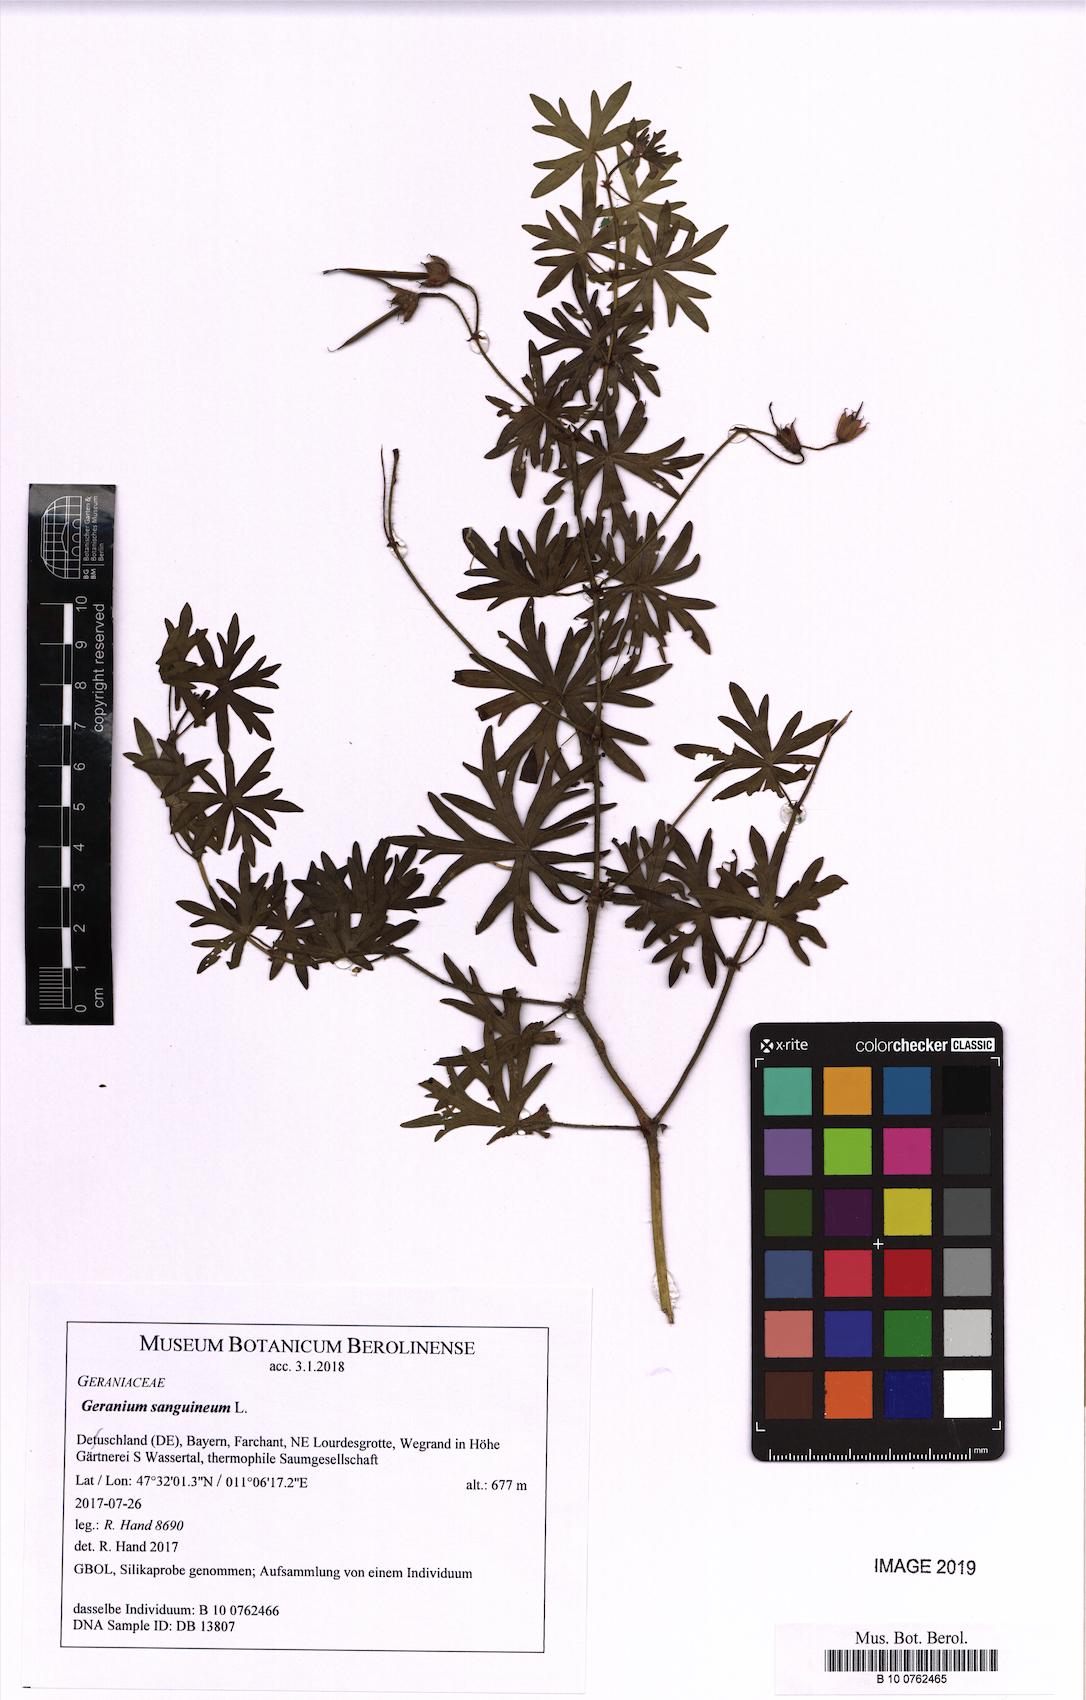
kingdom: Plantae
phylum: Tracheophyta
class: Magnoliopsida
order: Geraniales
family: Geraniaceae
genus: Geranium
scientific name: Geranium sanguineum
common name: Bloody crane's-bill
